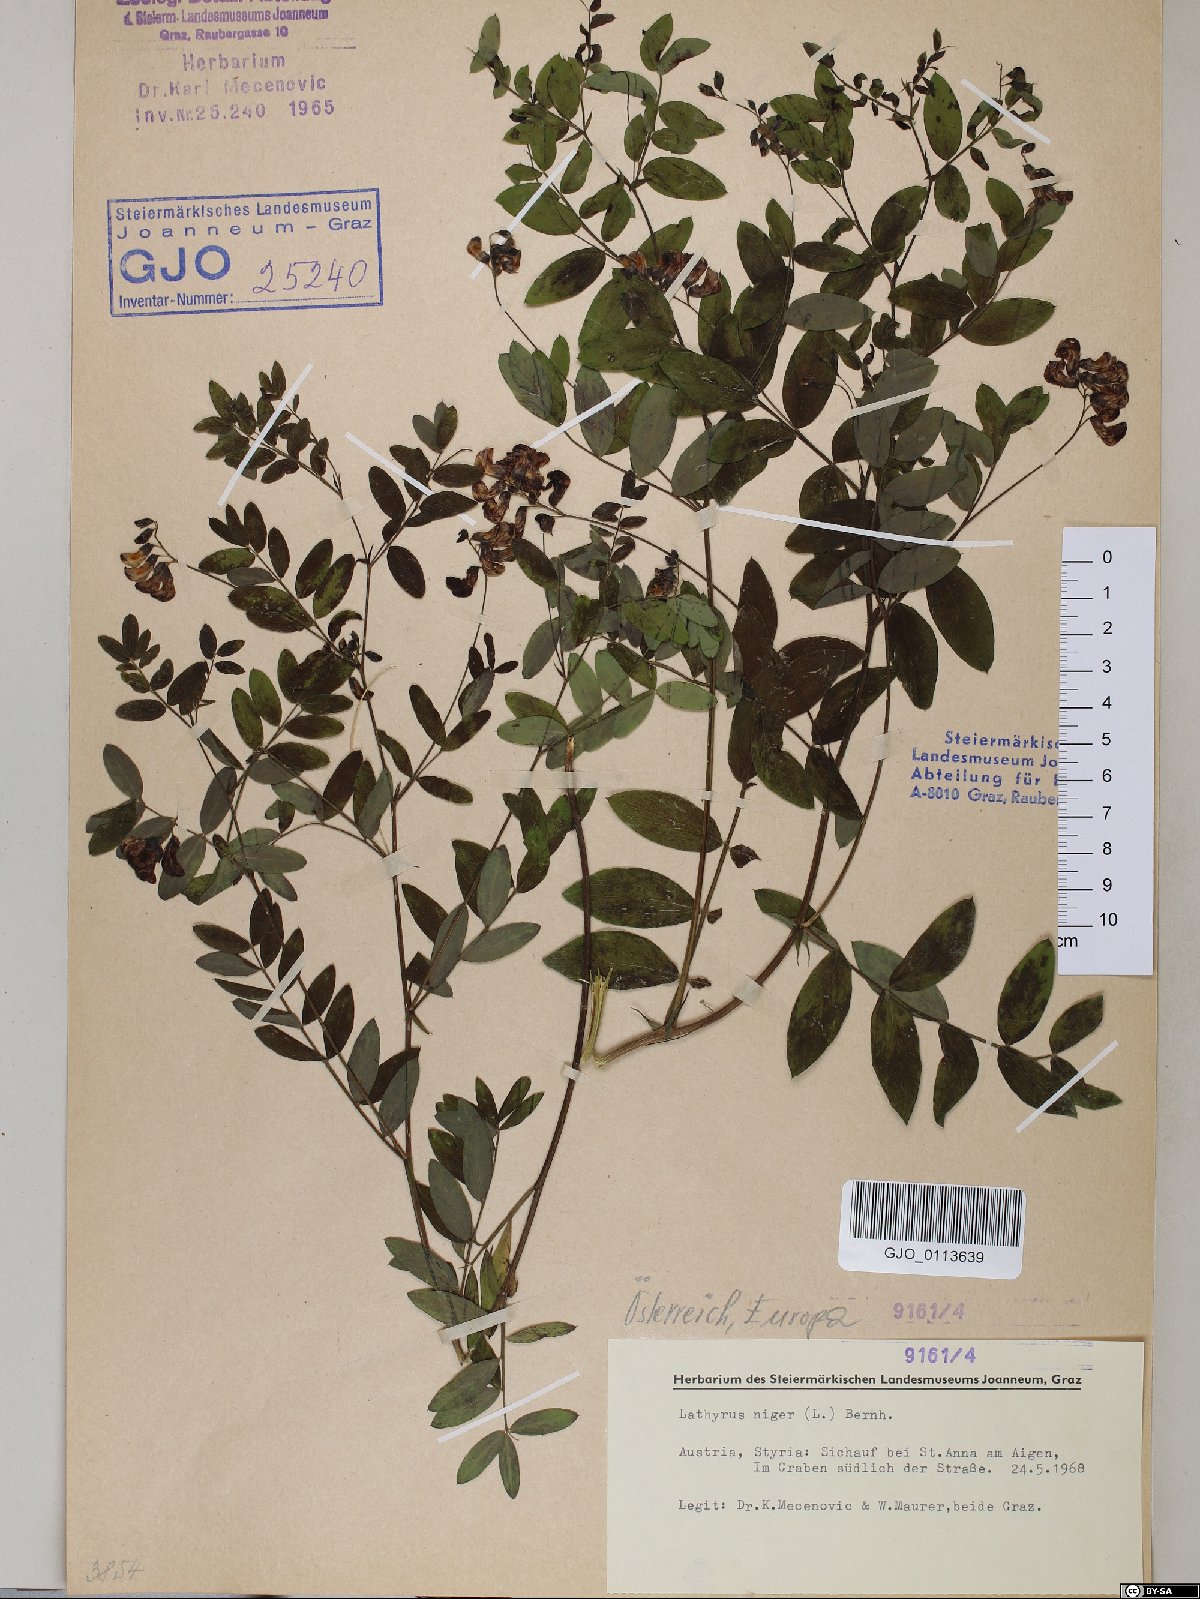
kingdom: Plantae
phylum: Tracheophyta
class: Magnoliopsida
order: Fabales
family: Fabaceae
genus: Lathyrus
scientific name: Lathyrus niger
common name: Black pea
